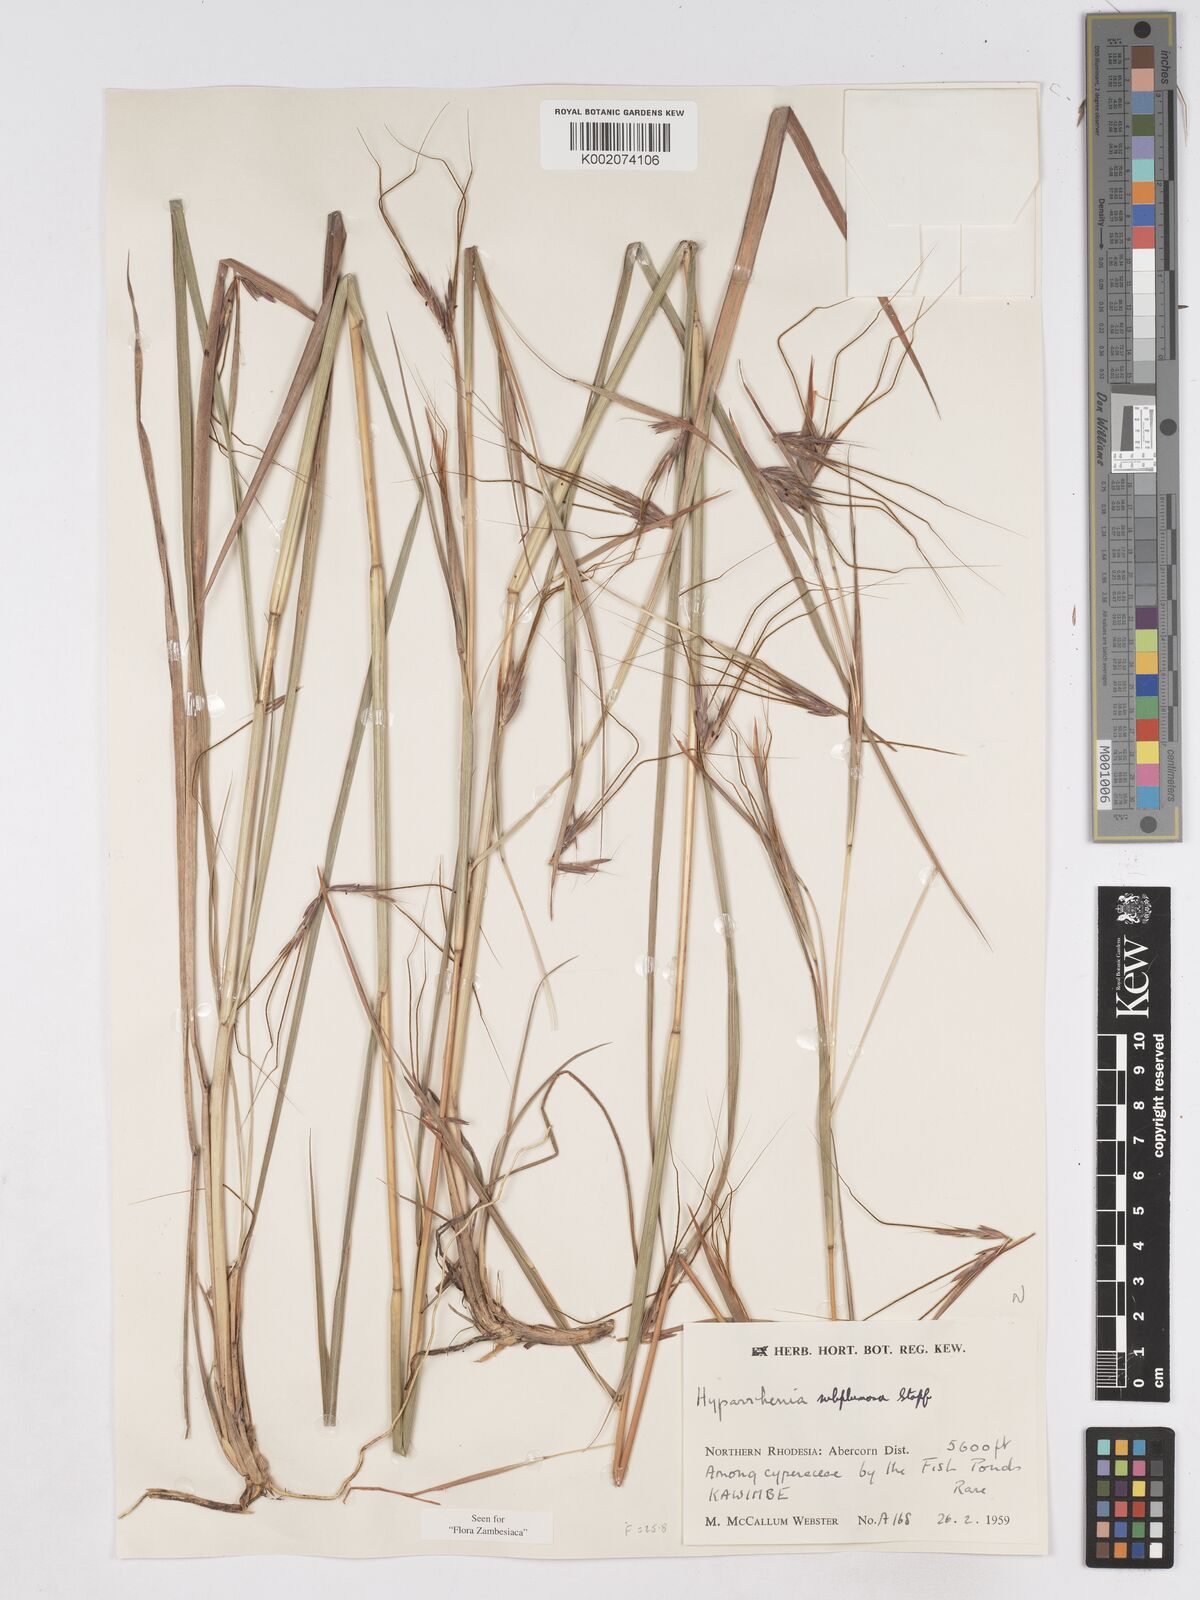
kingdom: Plantae
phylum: Tracheophyta
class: Liliopsida
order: Poales
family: Poaceae
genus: Hyparrhenia
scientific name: Hyparrhenia subplumosa
